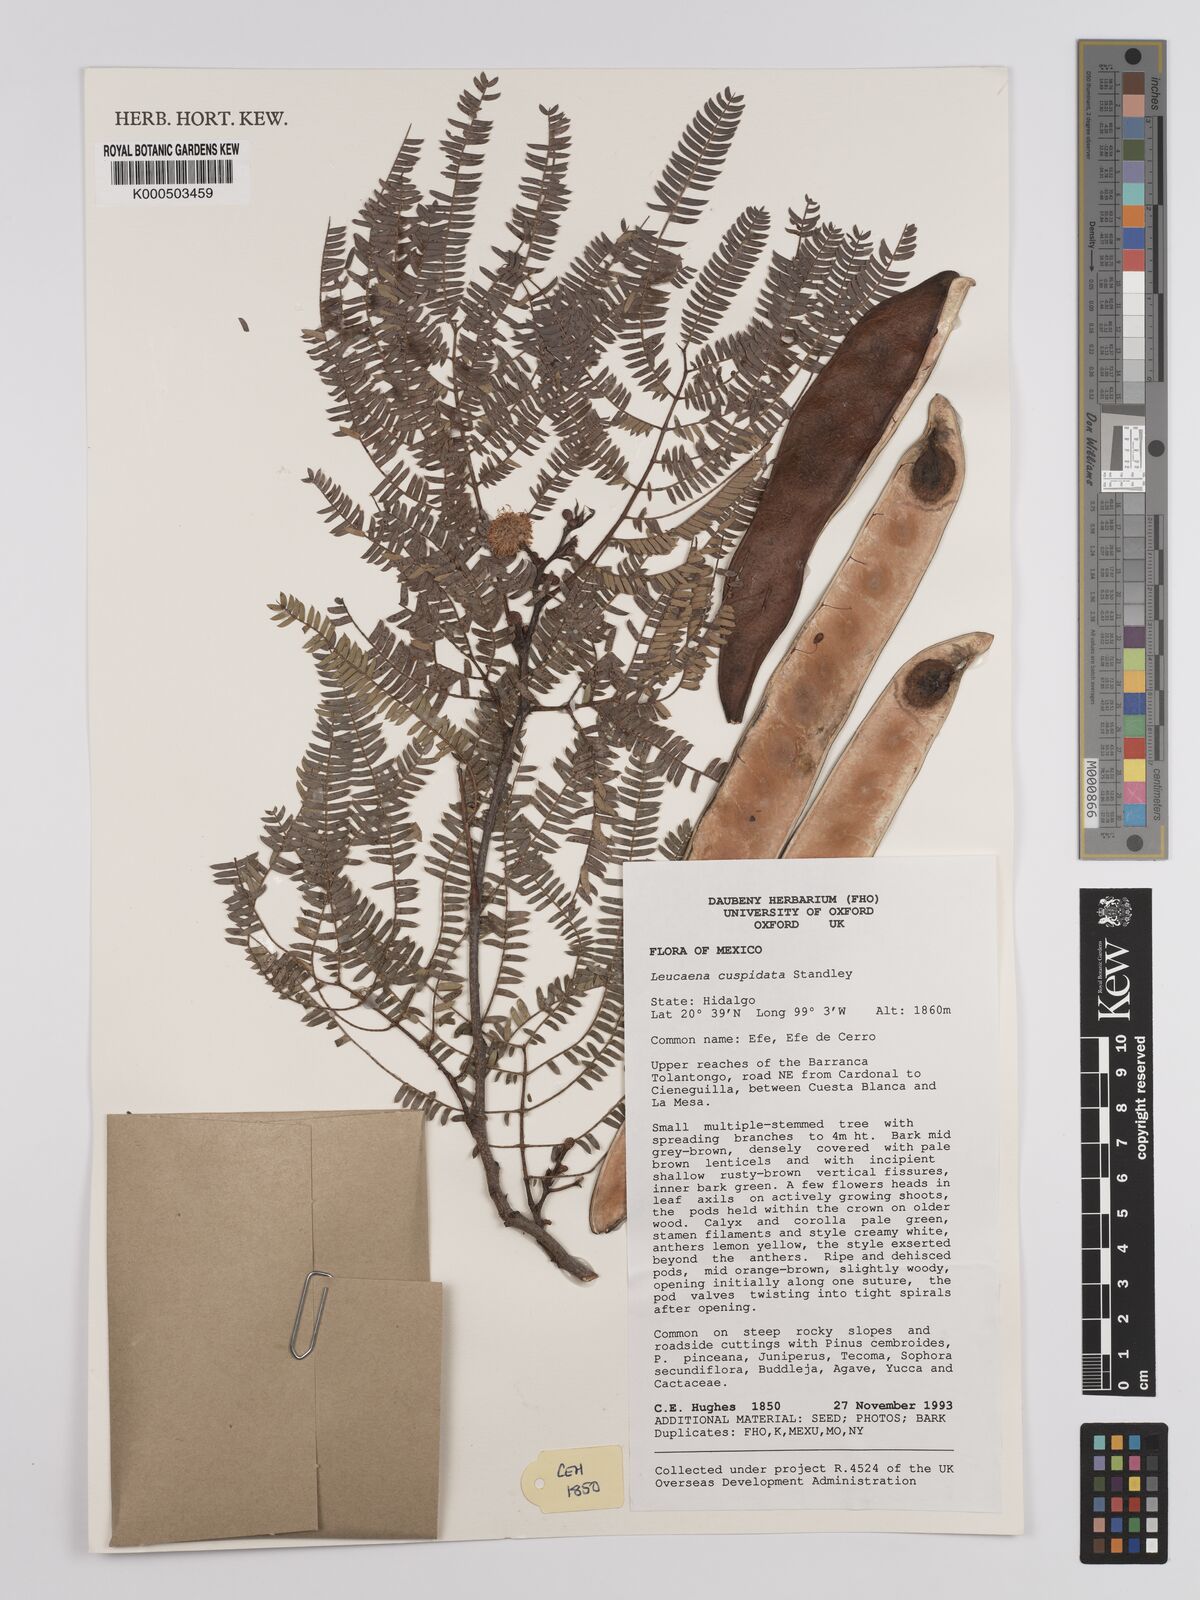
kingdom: Plantae
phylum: Tracheophyta
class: Magnoliopsida
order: Fabales
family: Fabaceae
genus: Leucaena
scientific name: Leucaena cuspidata
